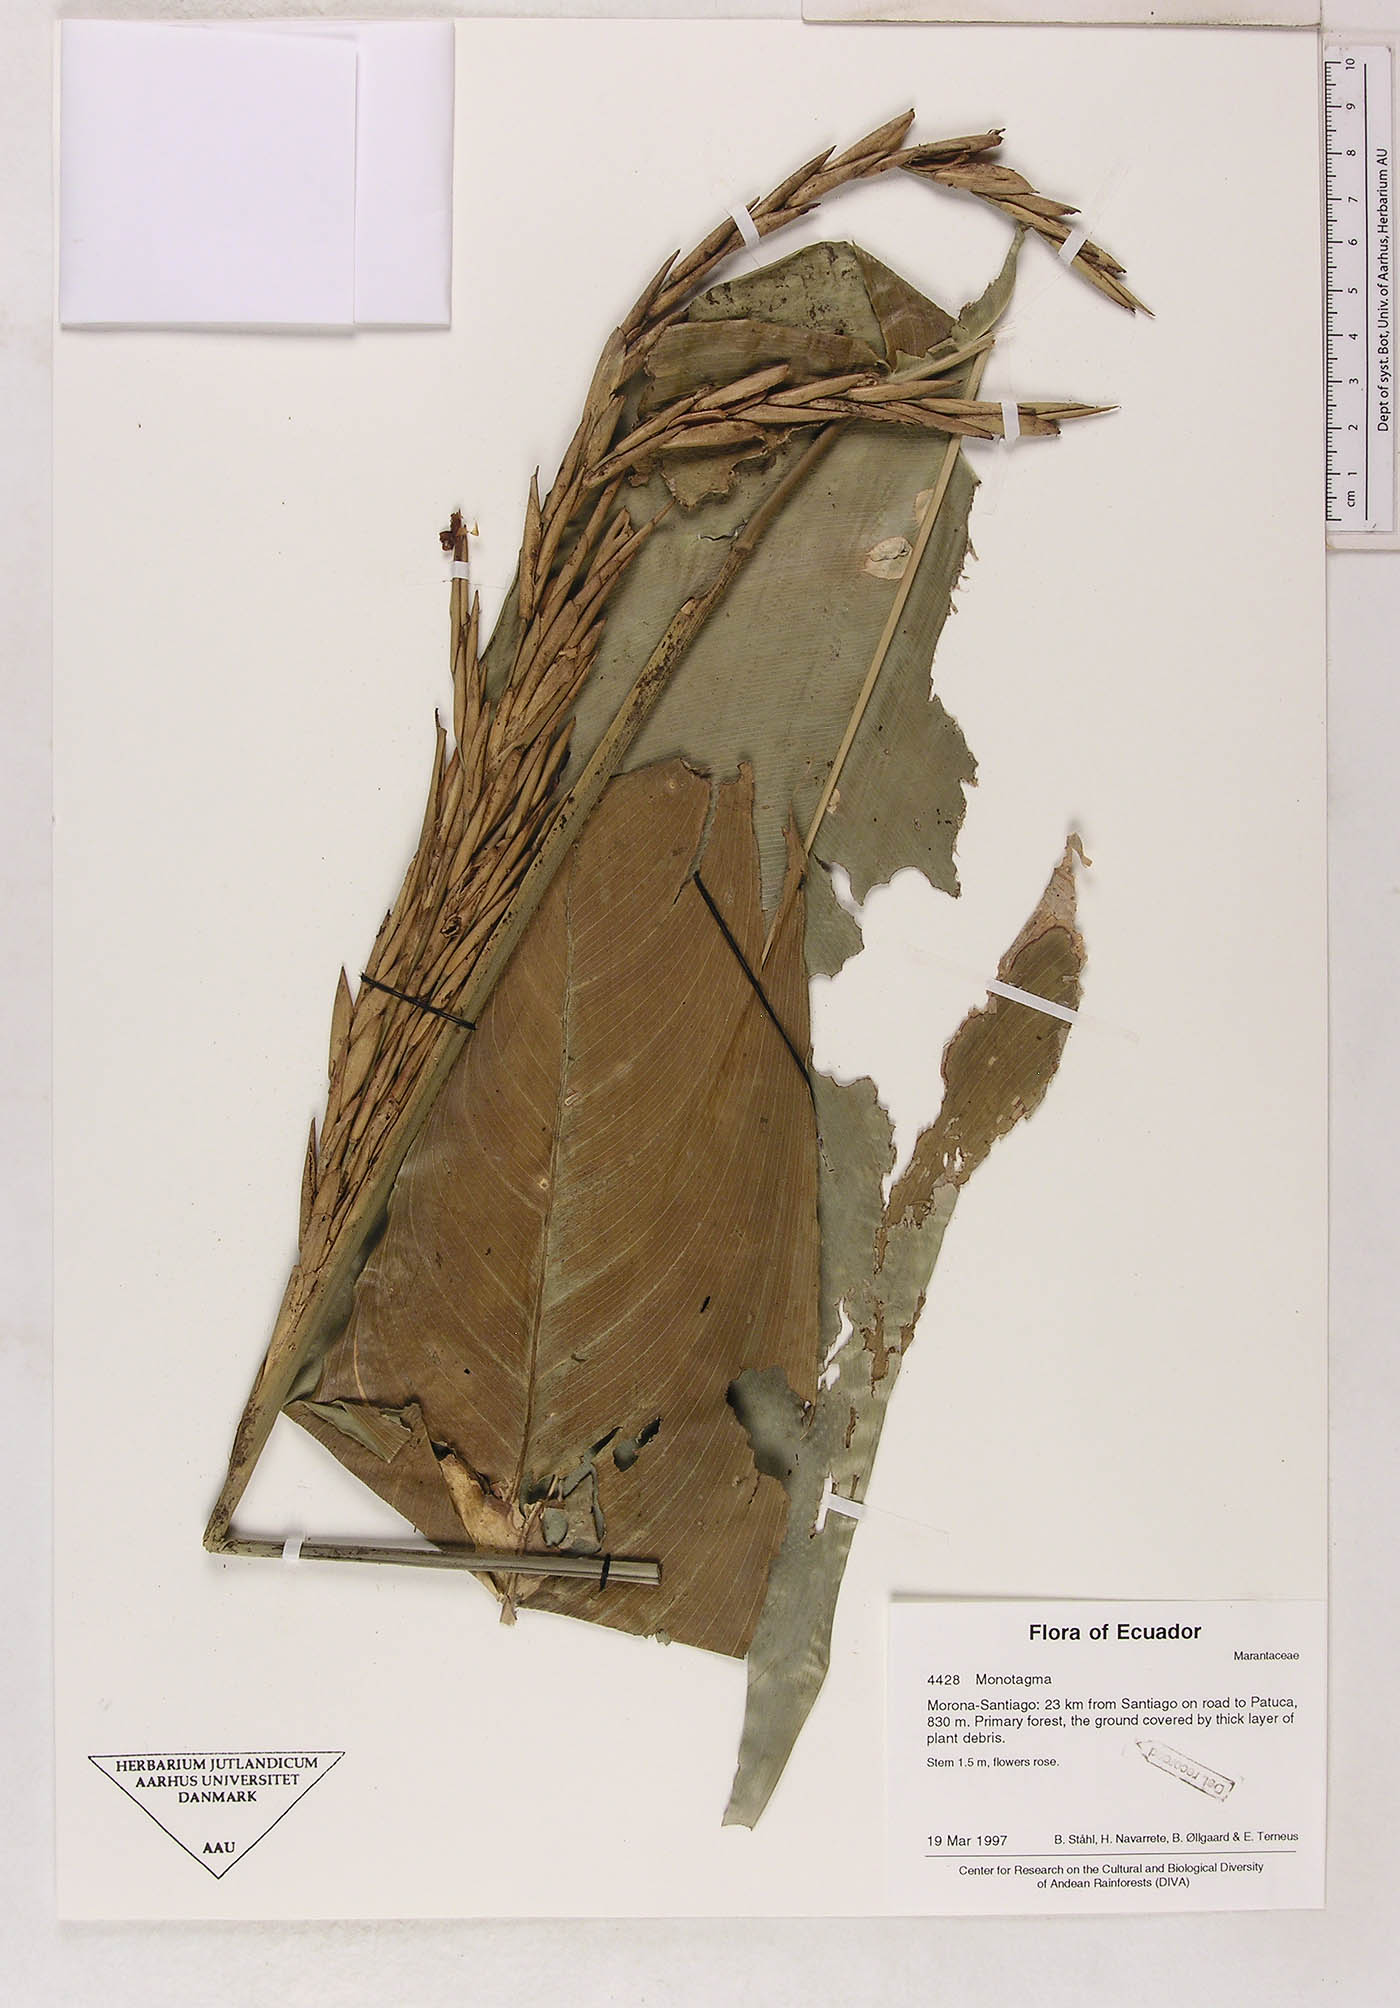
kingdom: Plantae
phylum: Tracheophyta
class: Liliopsida
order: Zingiberales
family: Marantaceae
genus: Monotagma
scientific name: Monotagma
